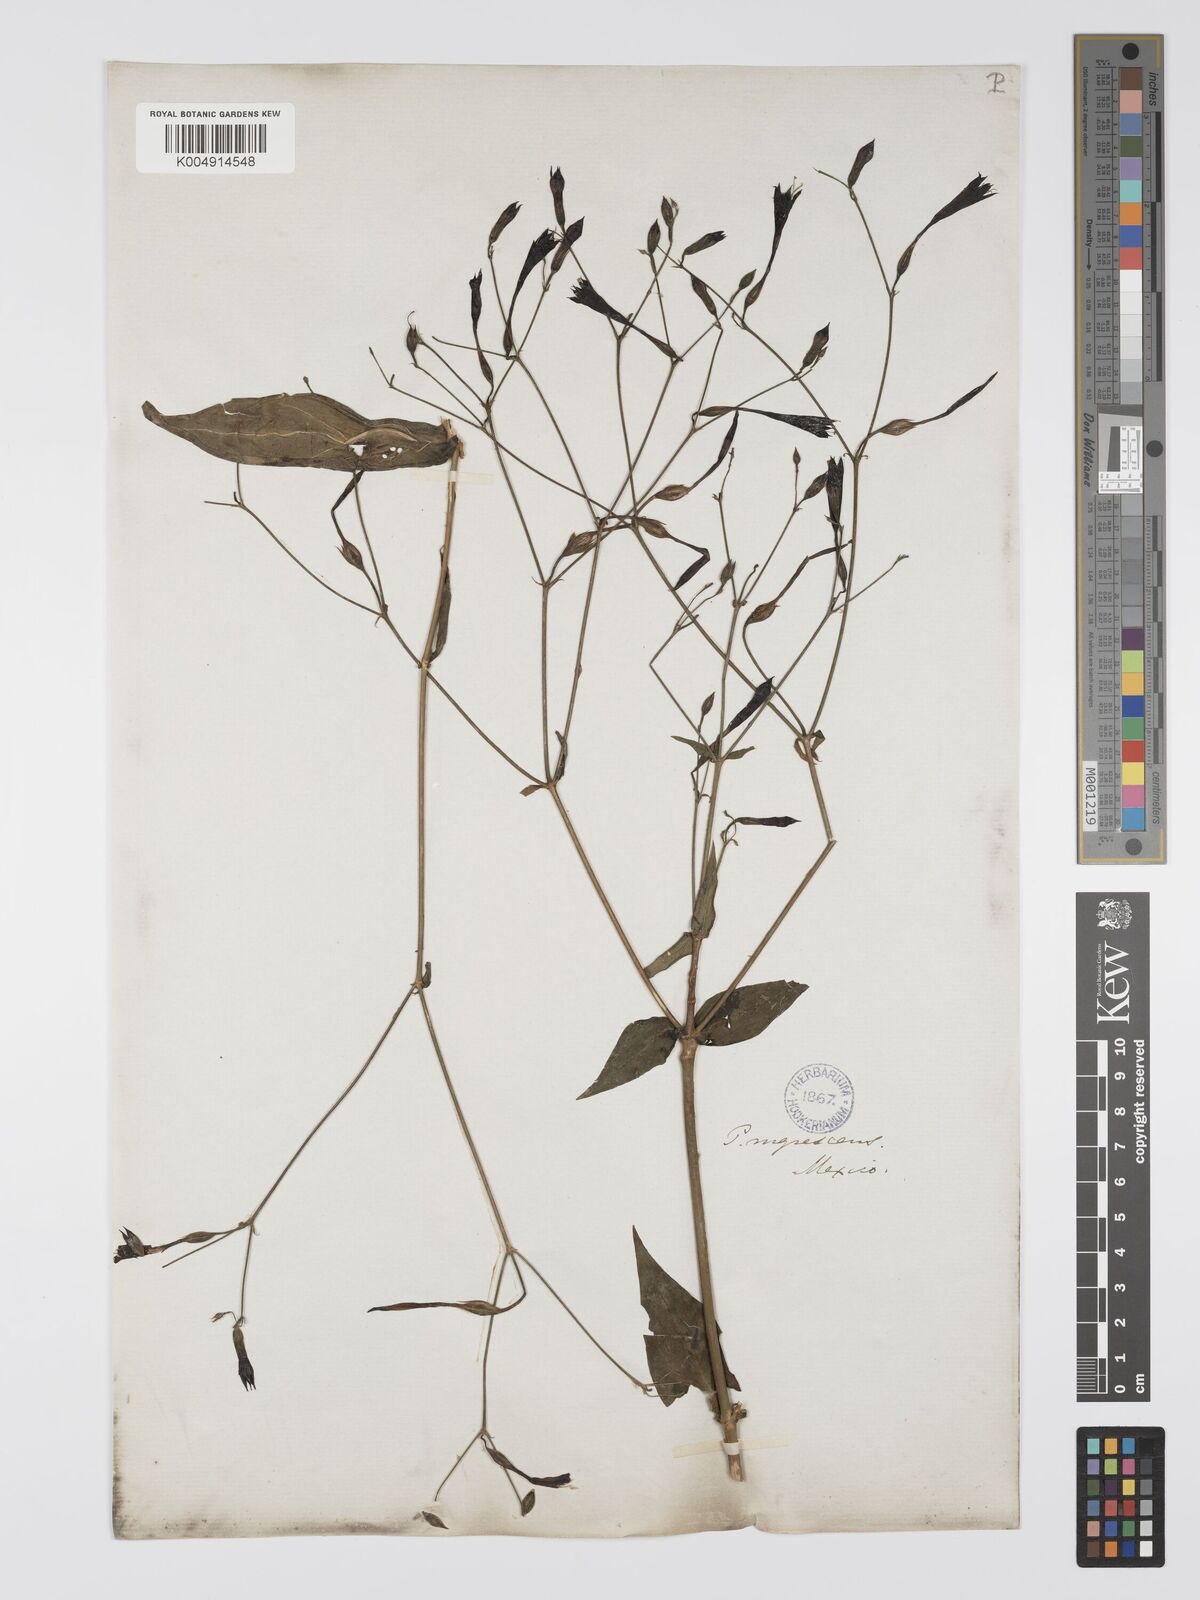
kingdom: Plantae
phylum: Tracheophyta
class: Magnoliopsida
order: Gentianales
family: Gentianaceae
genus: Lisianthus
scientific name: Lisianthus nigrescens
